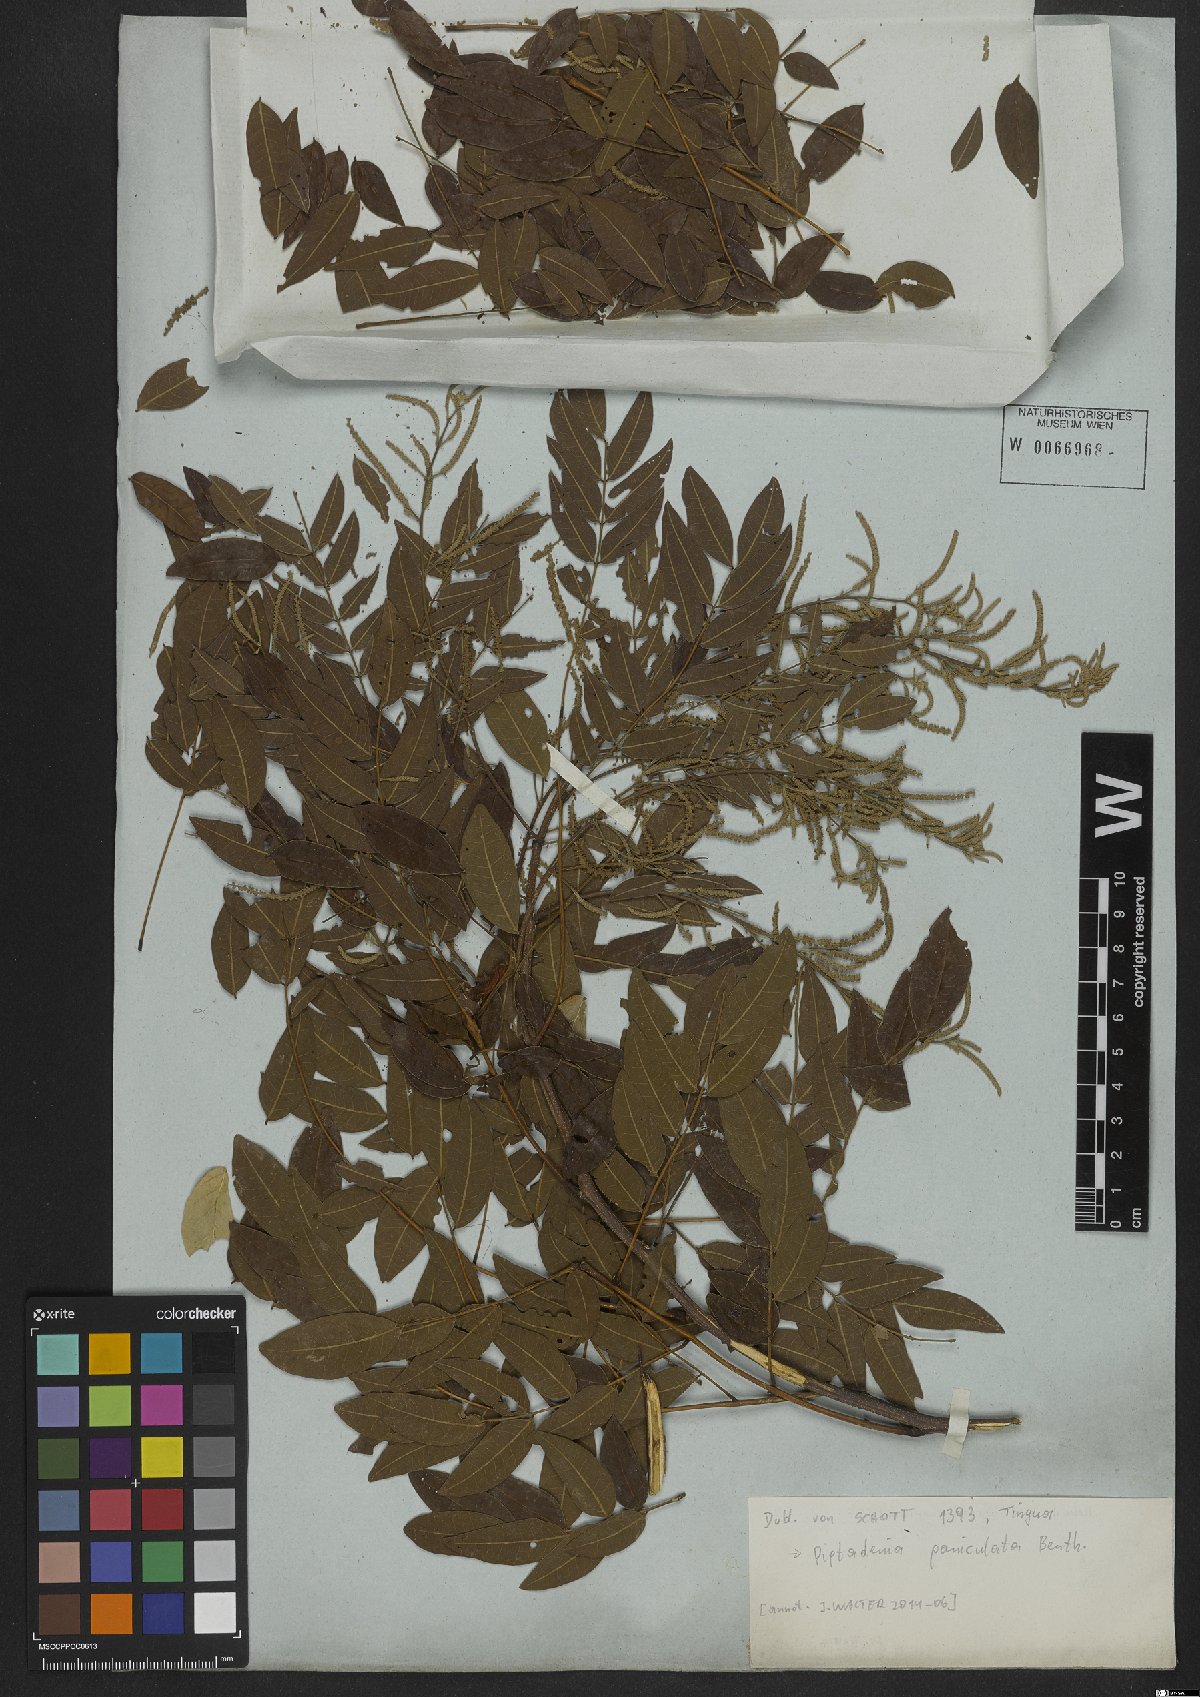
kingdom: Plantae
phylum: Tracheophyta
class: Magnoliopsida
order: Fabales
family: Fabaceae
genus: Piptadenia
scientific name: Piptadenia paniculata
